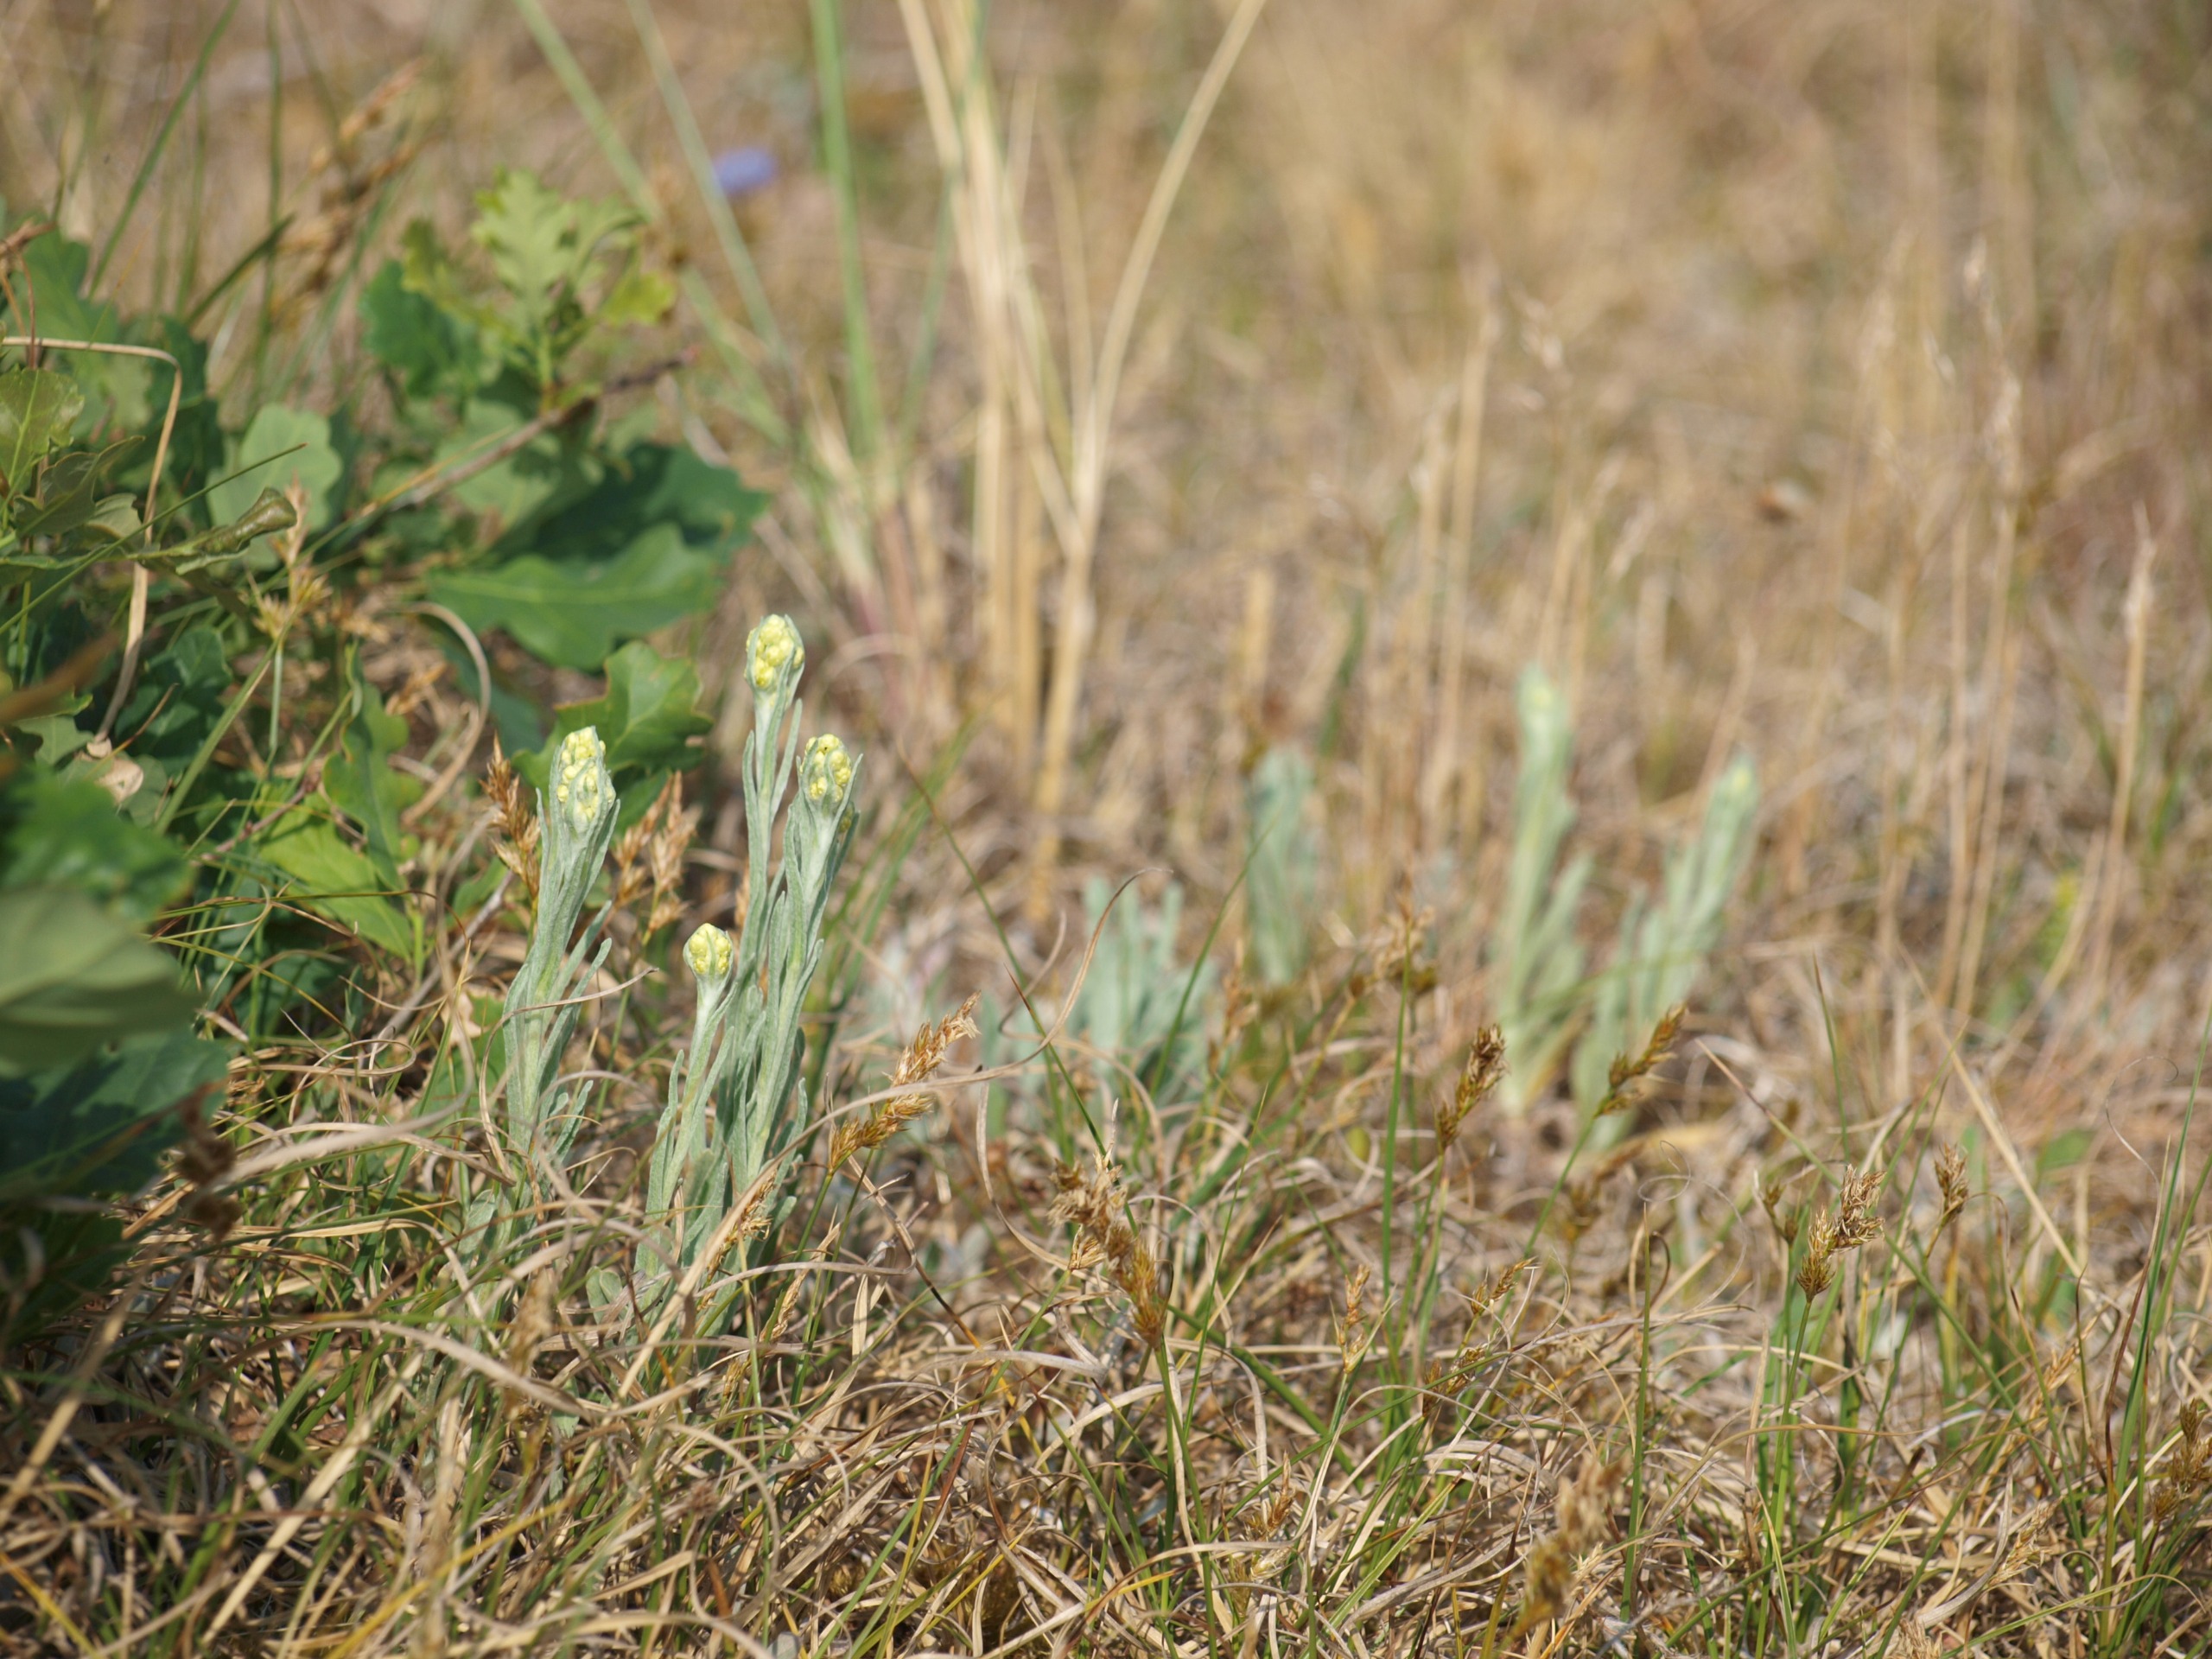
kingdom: Plantae
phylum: Tracheophyta
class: Magnoliopsida
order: Asterales
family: Asteraceae
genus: Helichrysum
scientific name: Helichrysum arenarium
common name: Gul evighedsblomst
